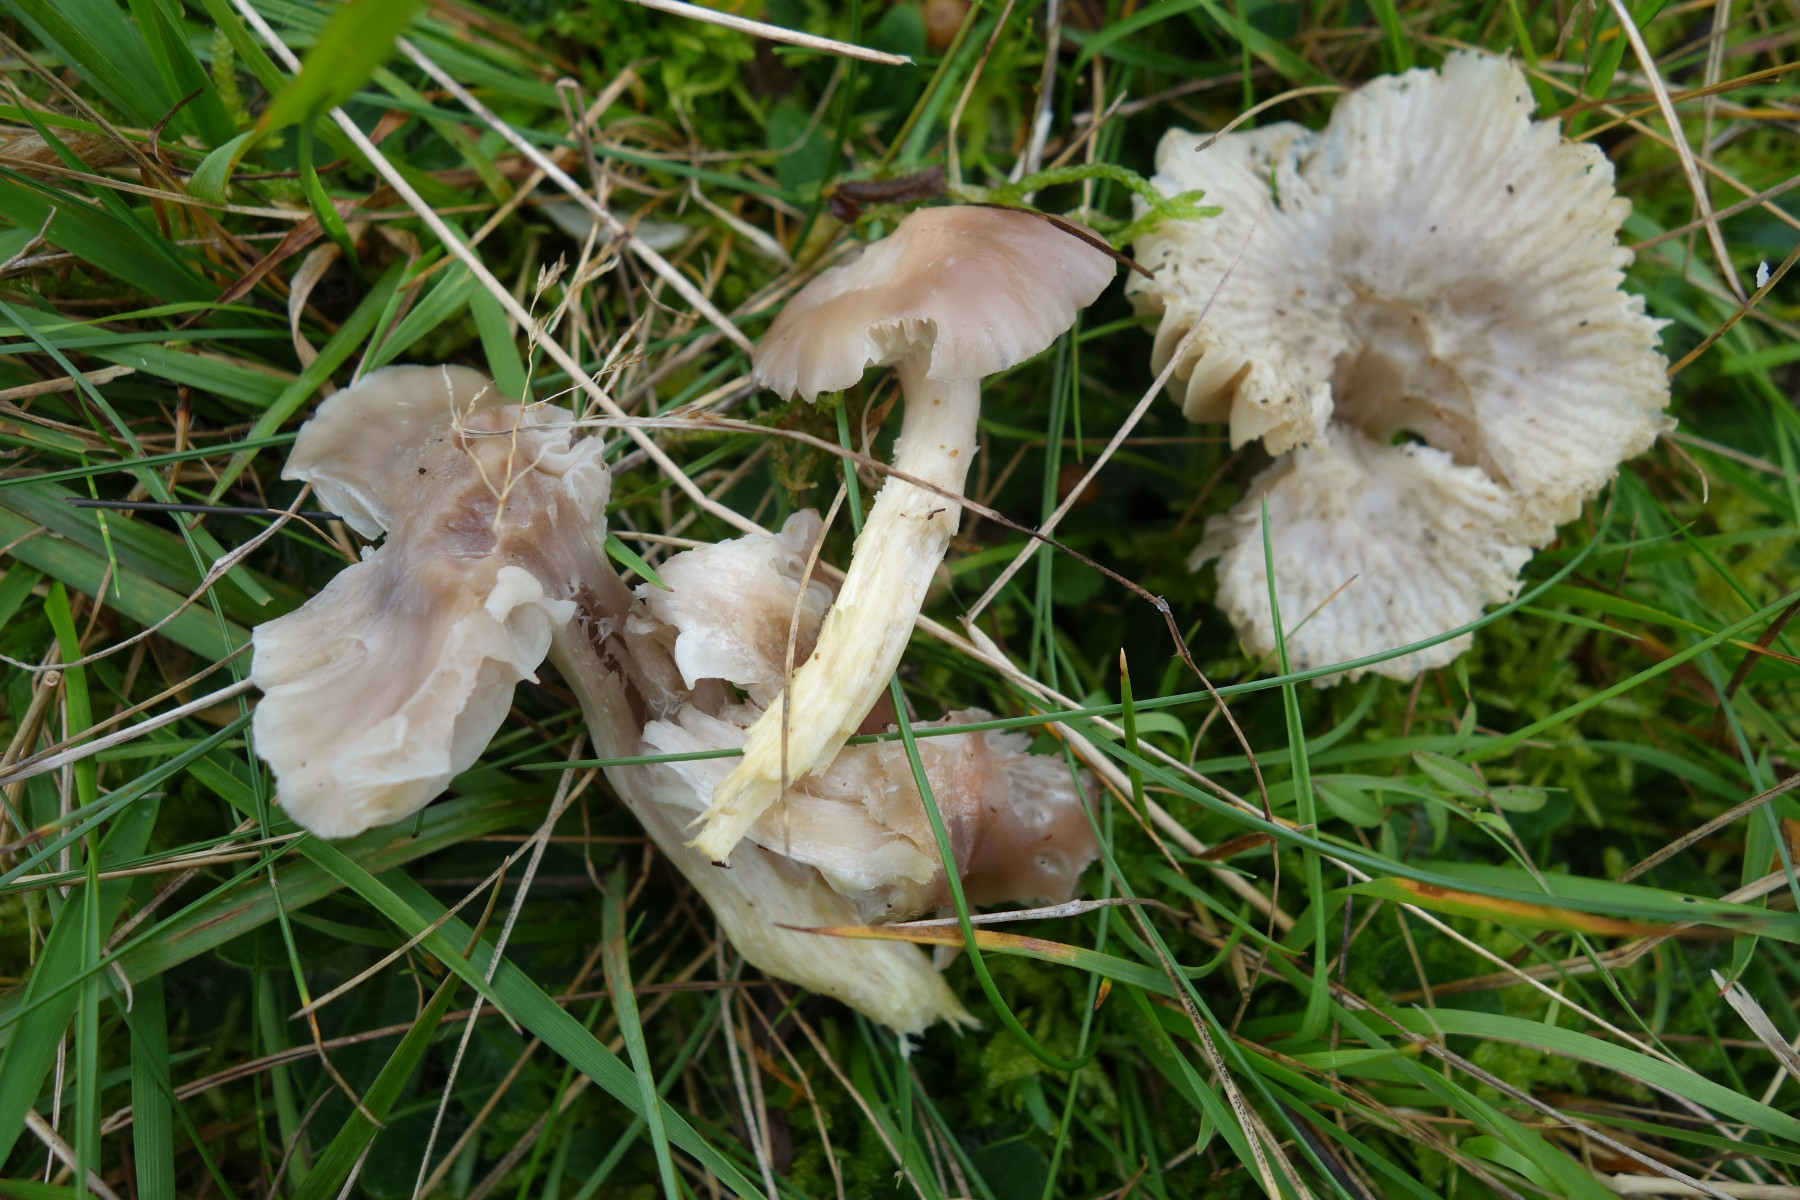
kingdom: Fungi
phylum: Basidiomycota
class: Agaricomycetes
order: Agaricales
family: Hygrophoraceae
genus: Cuphophyllus
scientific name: Cuphophyllus flavipes
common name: gulfodet vokshat
